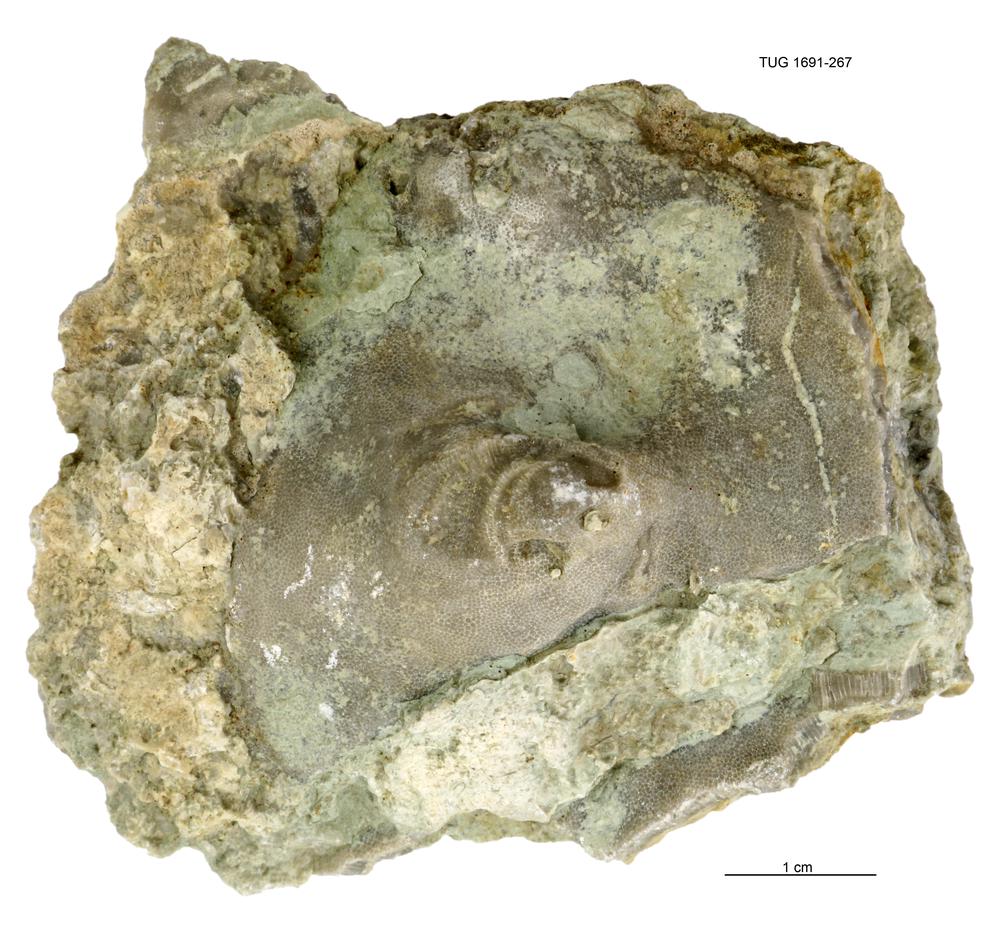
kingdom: Animalia
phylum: Bryozoa
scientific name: Bryozoa
